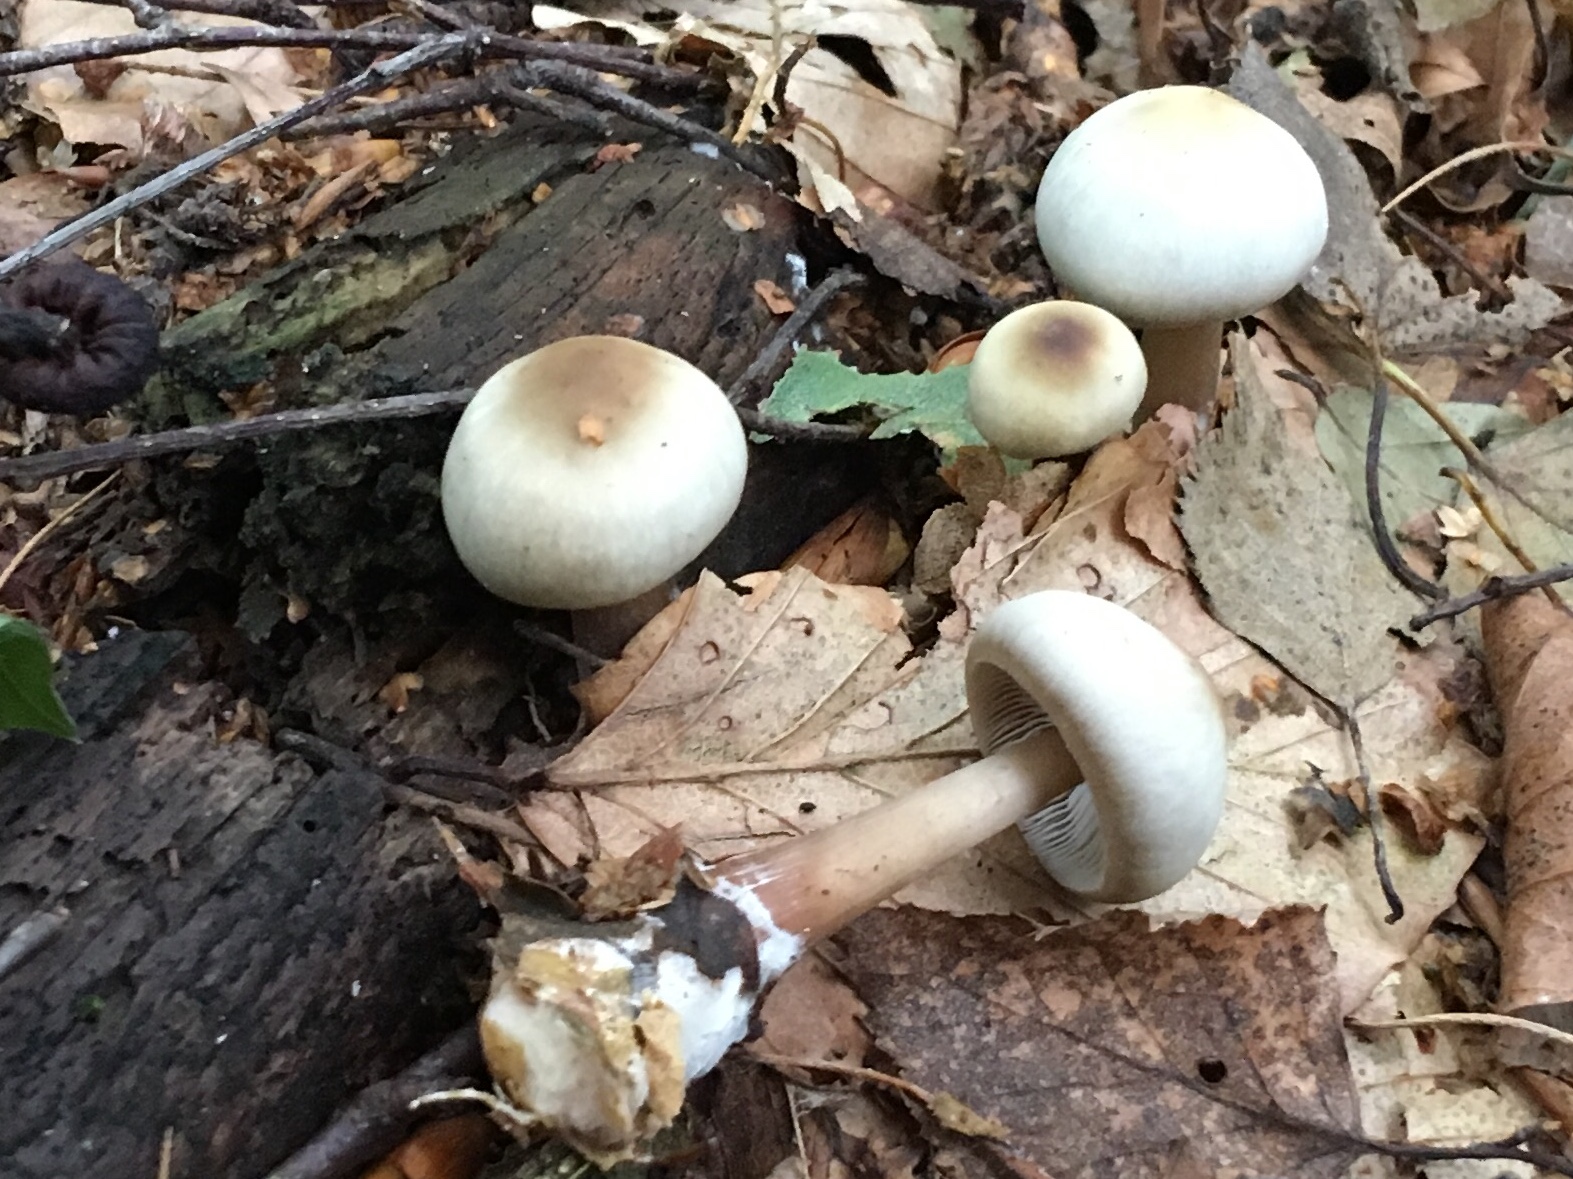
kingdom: Fungi
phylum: Basidiomycota
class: Agaricomycetes
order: Agaricales
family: Omphalotaceae
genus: Rhodocollybia
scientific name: Rhodocollybia asema
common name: horngrå fladhat
